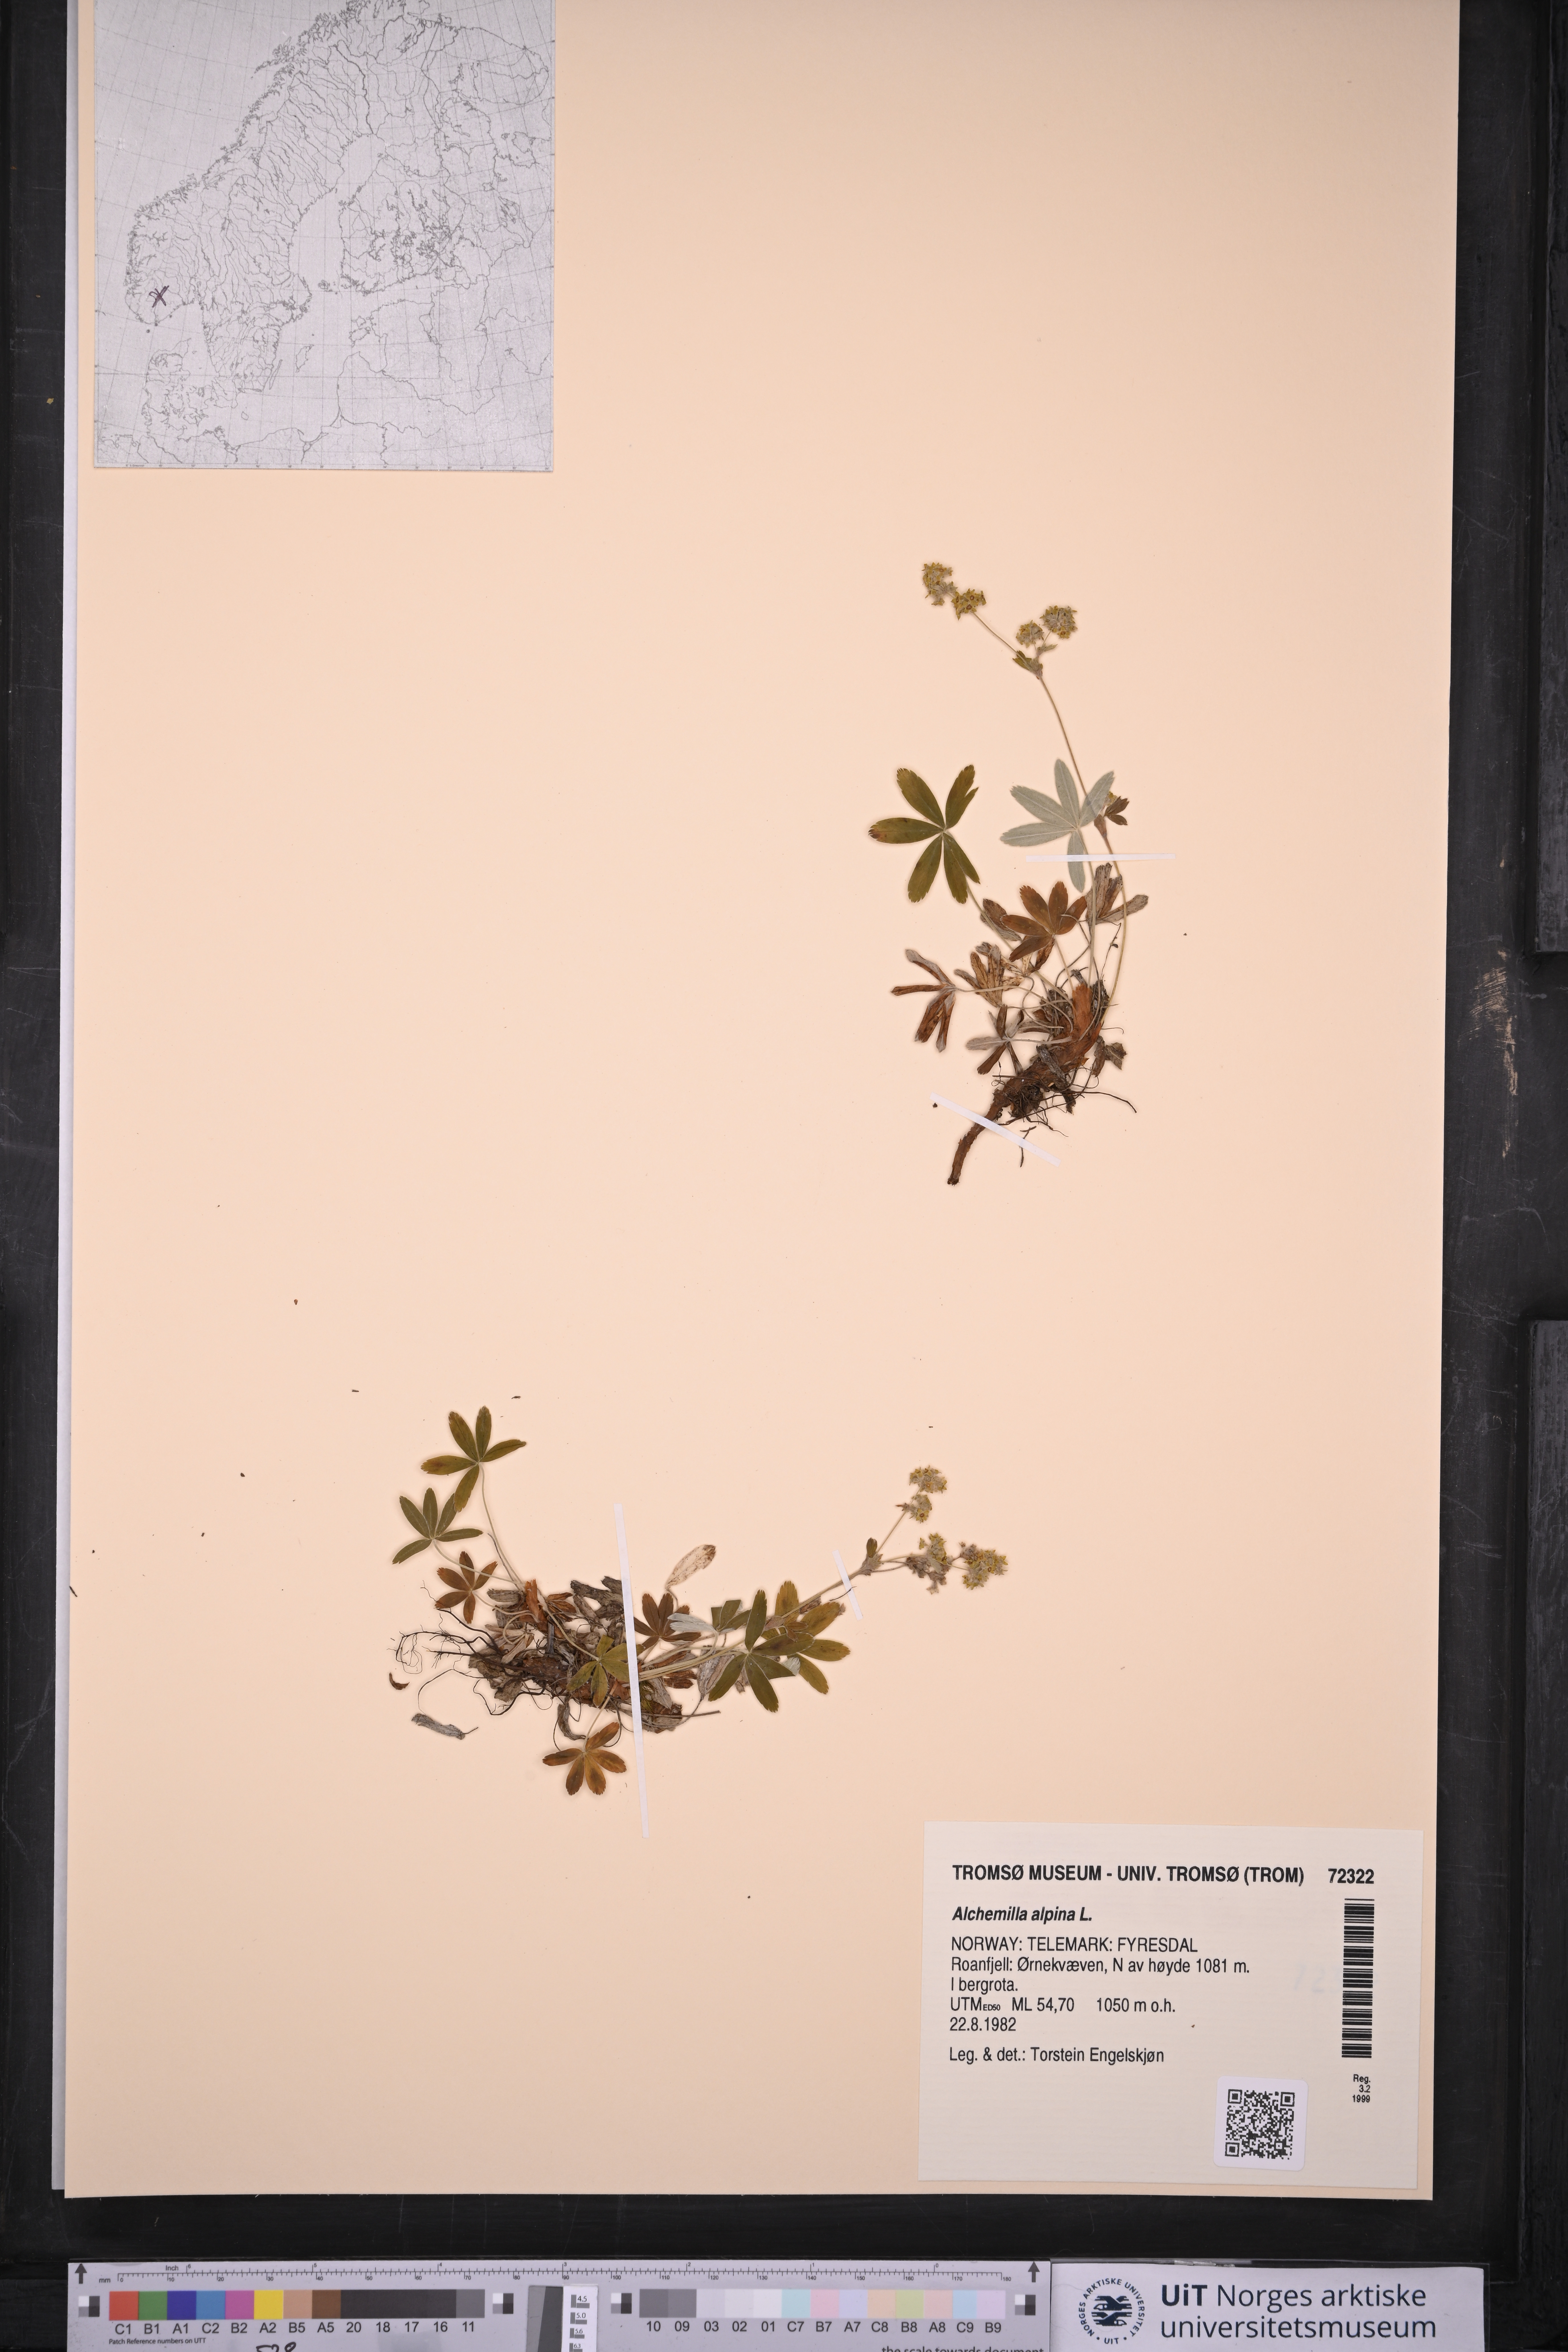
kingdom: Plantae
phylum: Tracheophyta
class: Magnoliopsida
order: Rosales
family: Rosaceae
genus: Alchemilla
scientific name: Alchemilla alpina
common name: Alpine lady's-mantle
